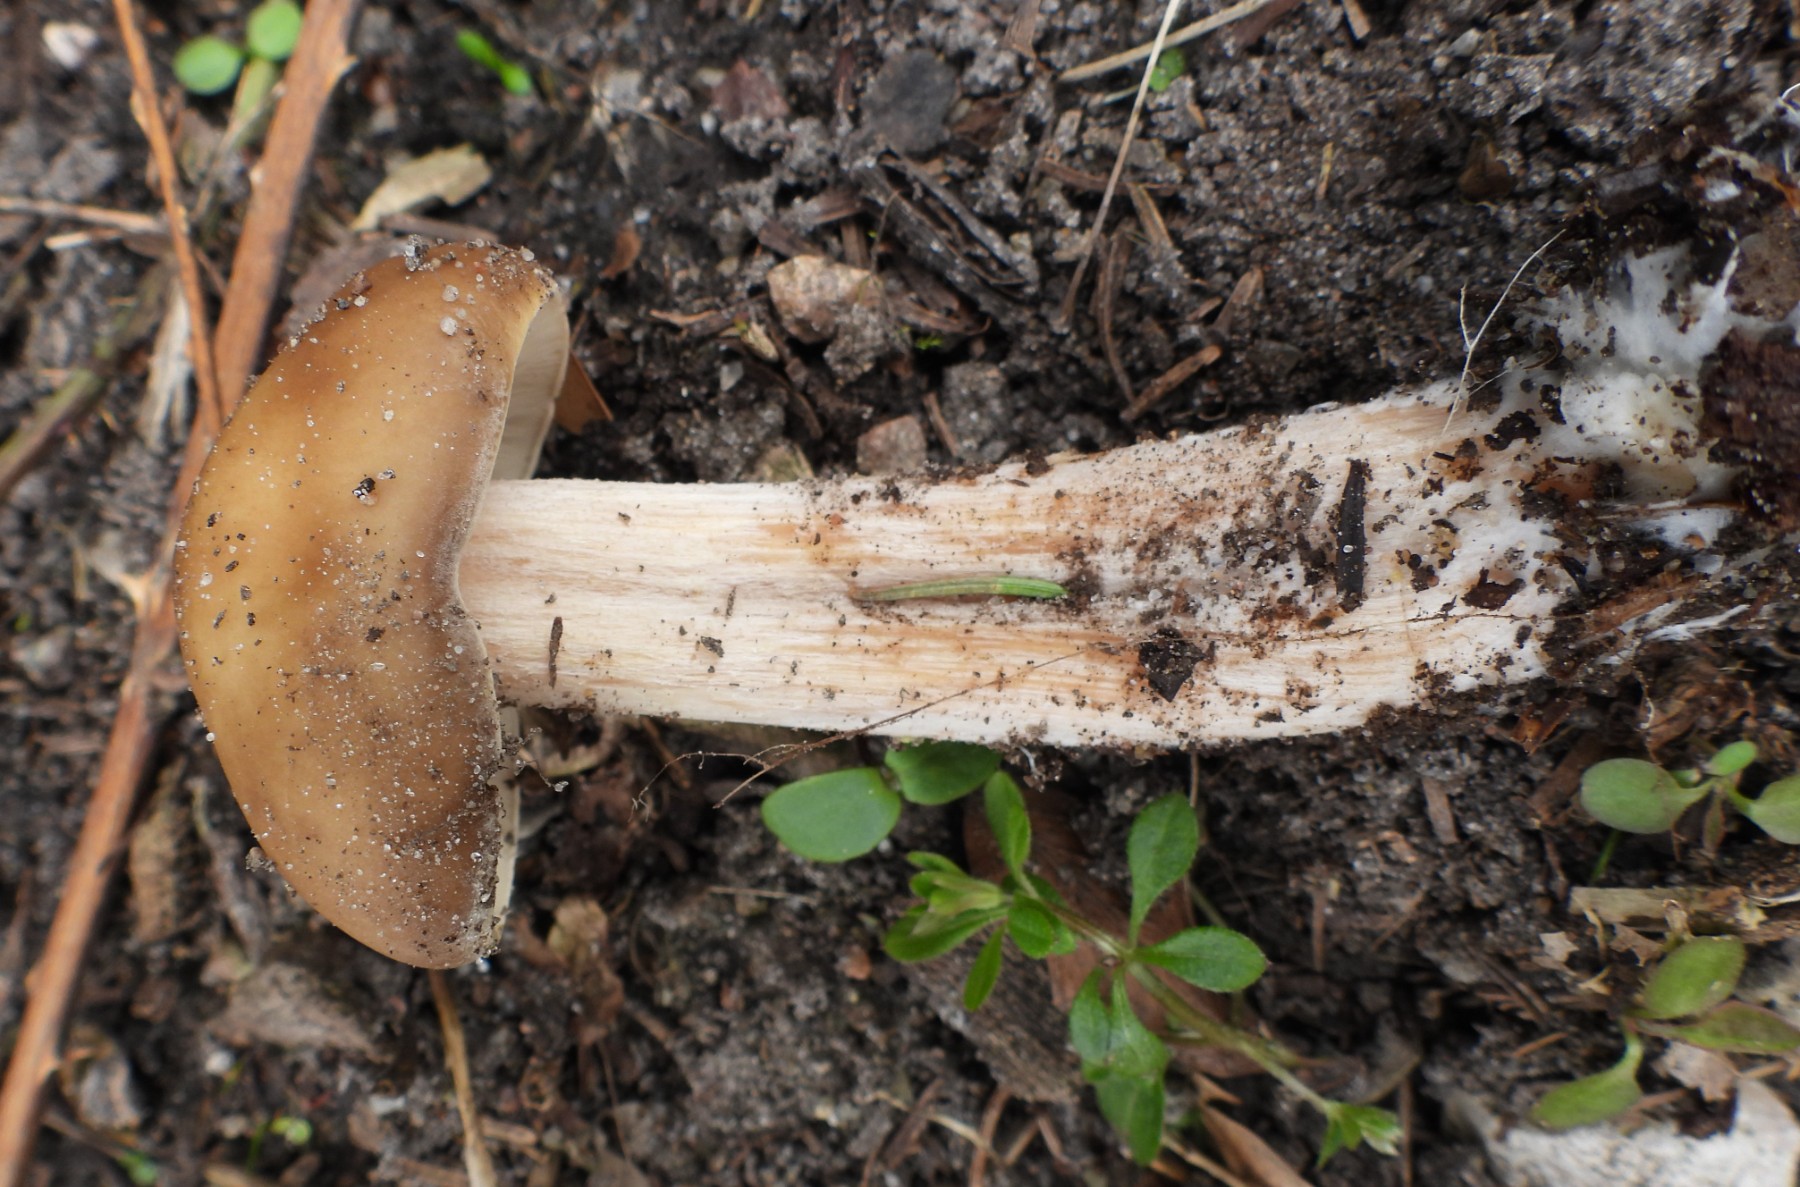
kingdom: Fungi
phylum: Basidiomycota
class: Agaricomycetes
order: Agaricales
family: Tricholomataceae
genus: Melanoleuca
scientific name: Melanoleuca cognata
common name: gyldengrå munkehat
